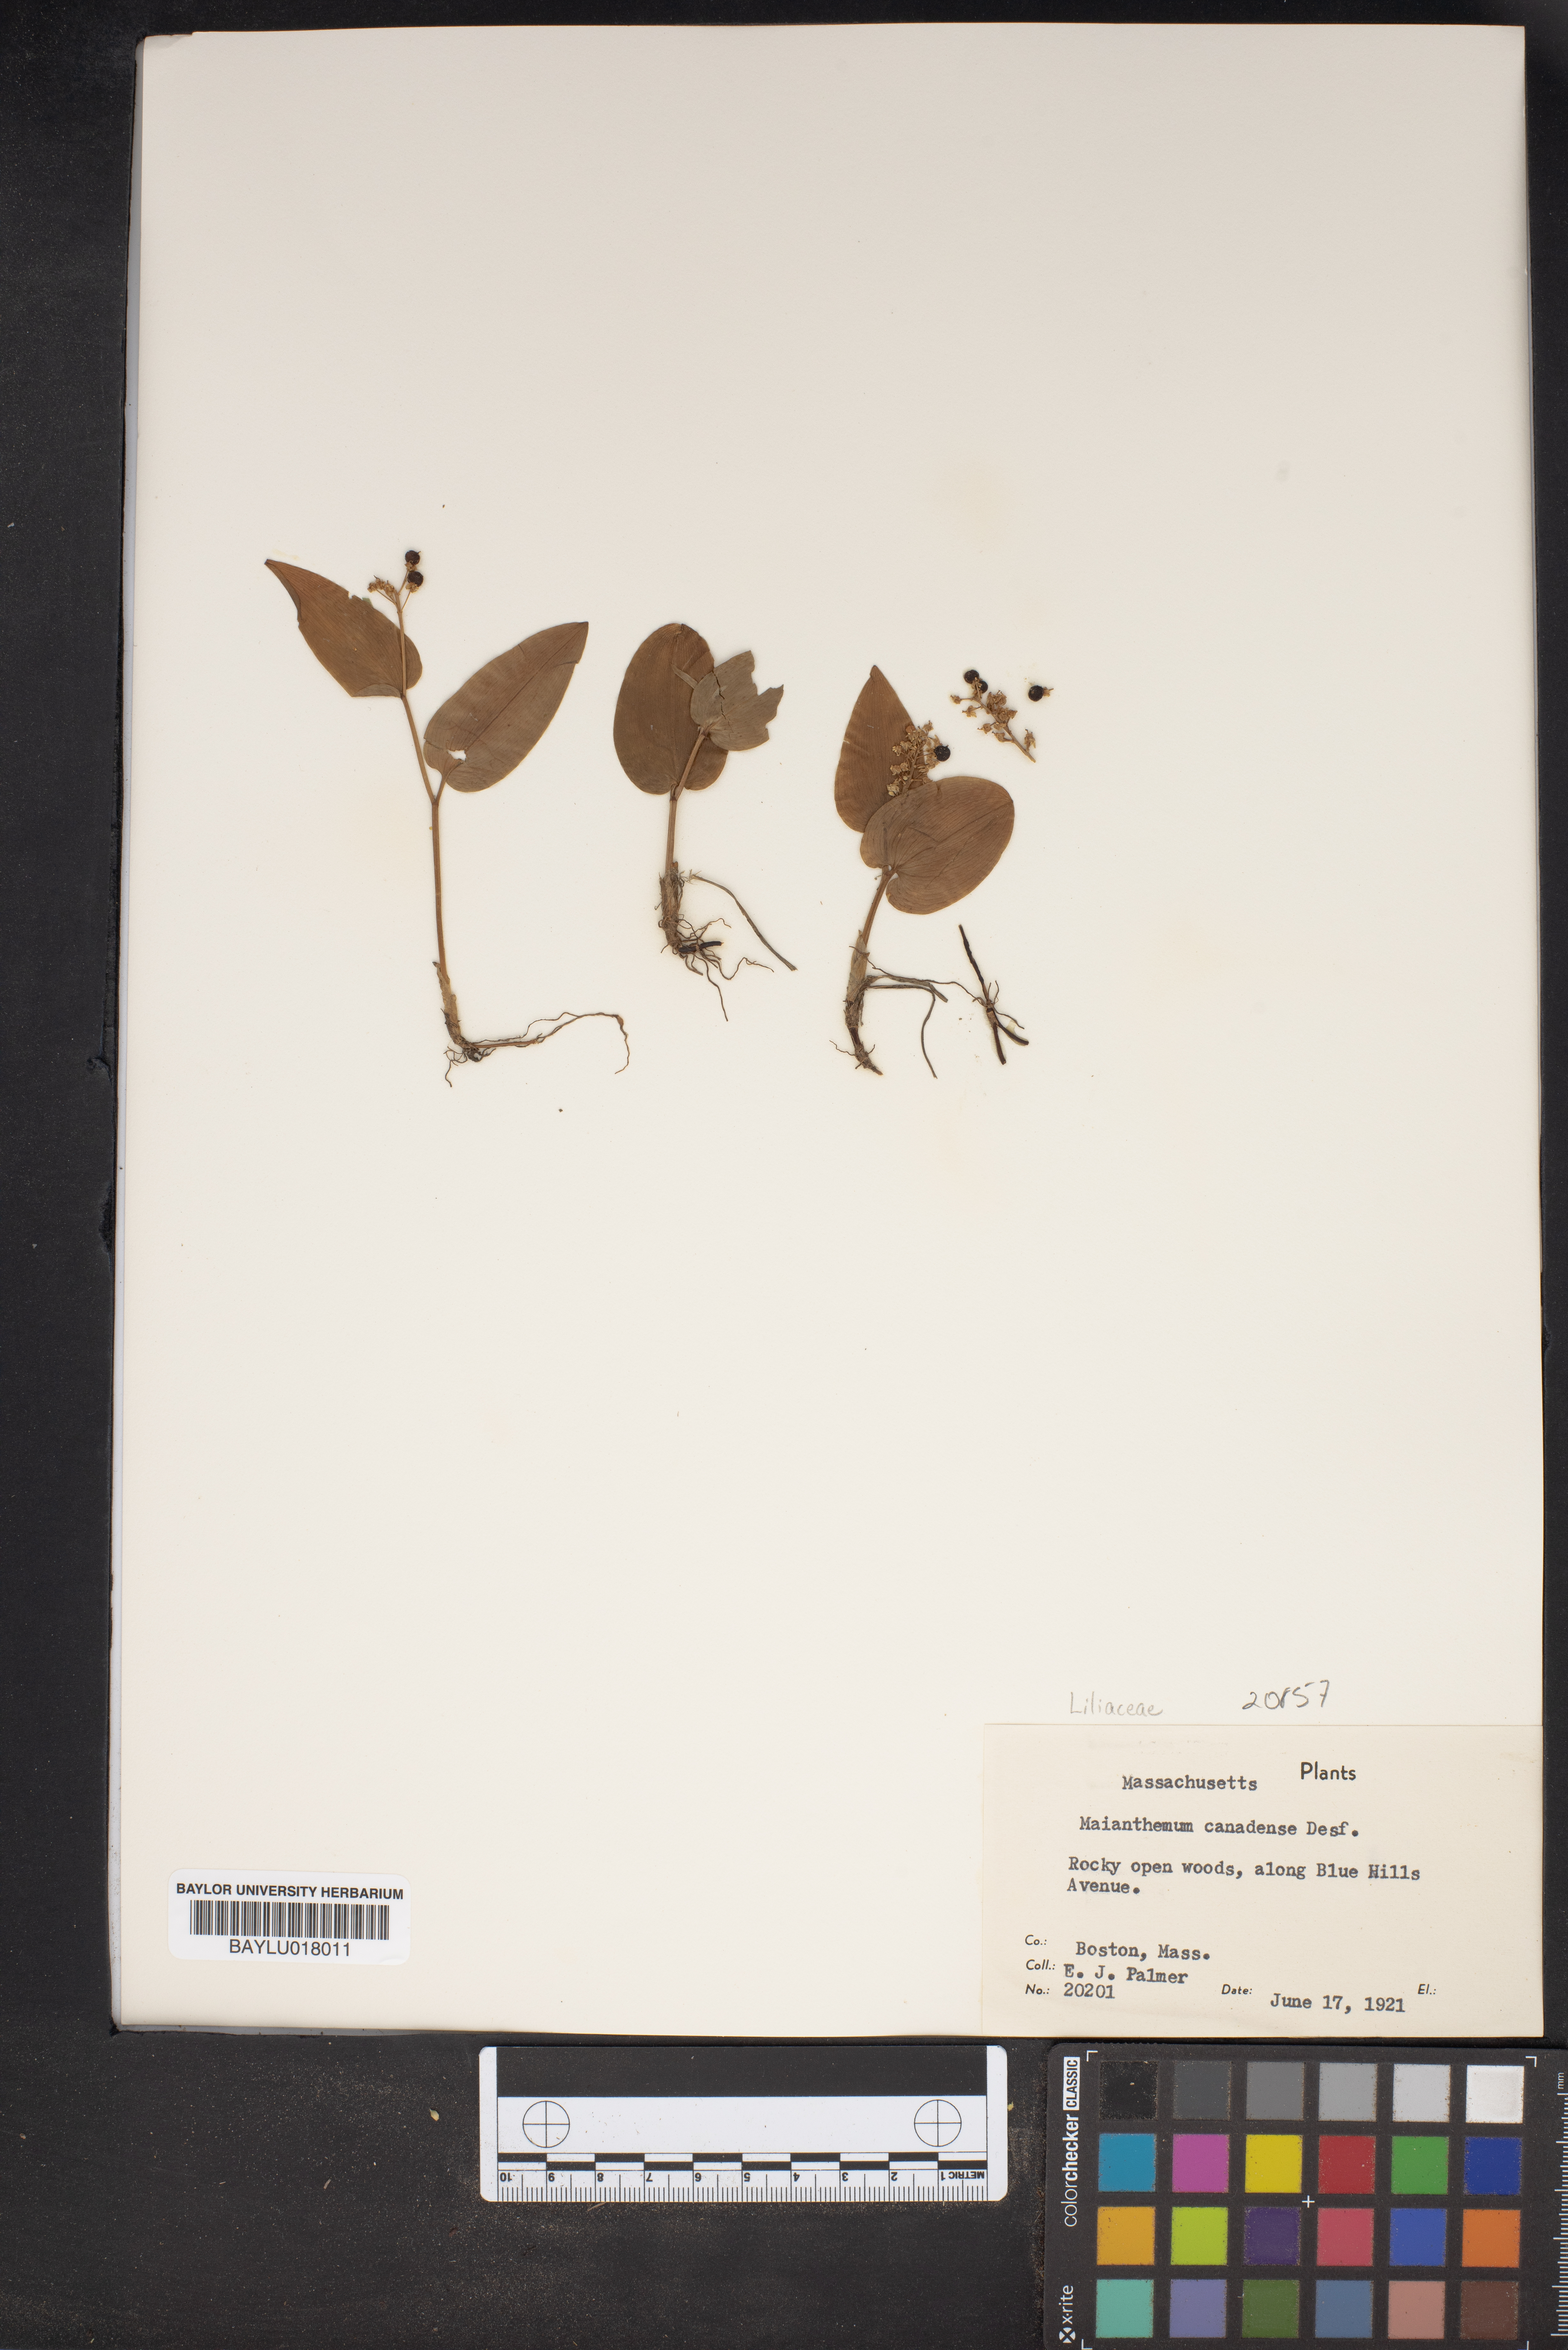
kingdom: Plantae
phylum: Tracheophyta
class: Liliopsida
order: Asparagales
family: Asparagaceae
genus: Maianthemum
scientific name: Maianthemum canadense
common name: False lily-of-the-valley
